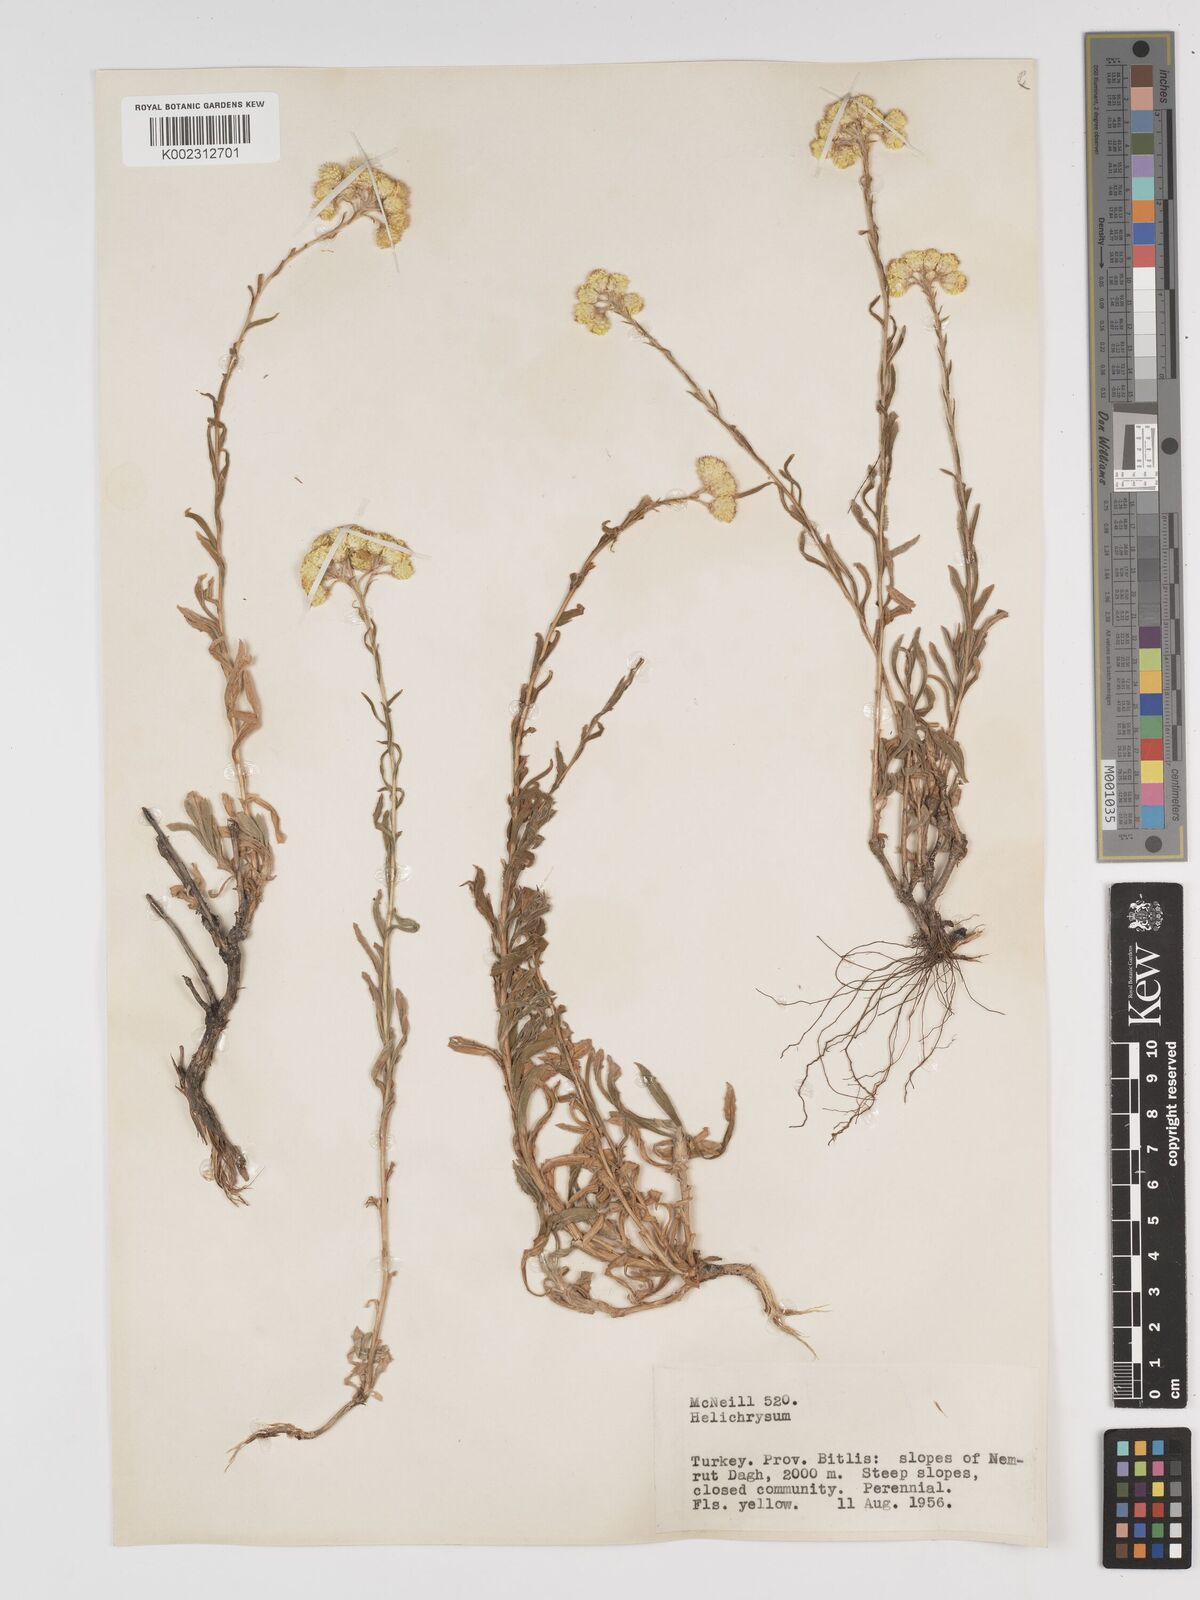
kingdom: Plantae
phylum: Tracheophyta
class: Magnoliopsida
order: Asterales
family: Asteraceae
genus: Helichrysum
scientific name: Helichrysum armenium
